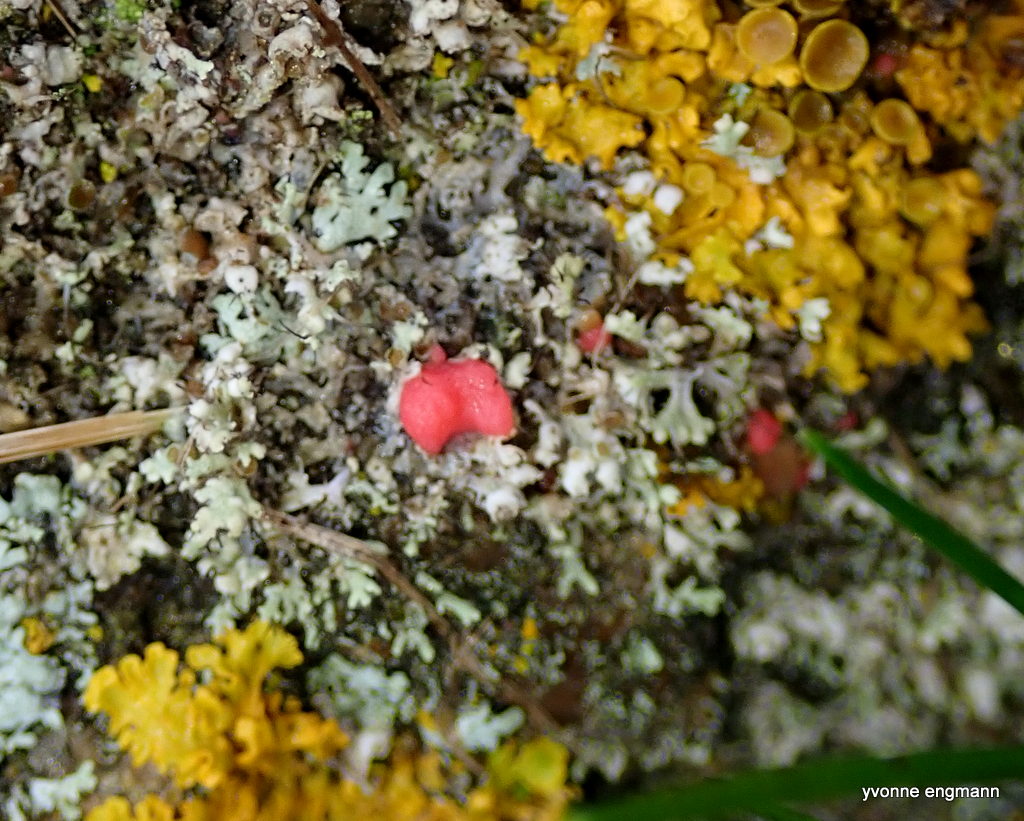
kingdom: Fungi
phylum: Ascomycota
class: Sordariomycetes
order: Hypocreales
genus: Illosporiopsis
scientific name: Illosporiopsis christiansenii
